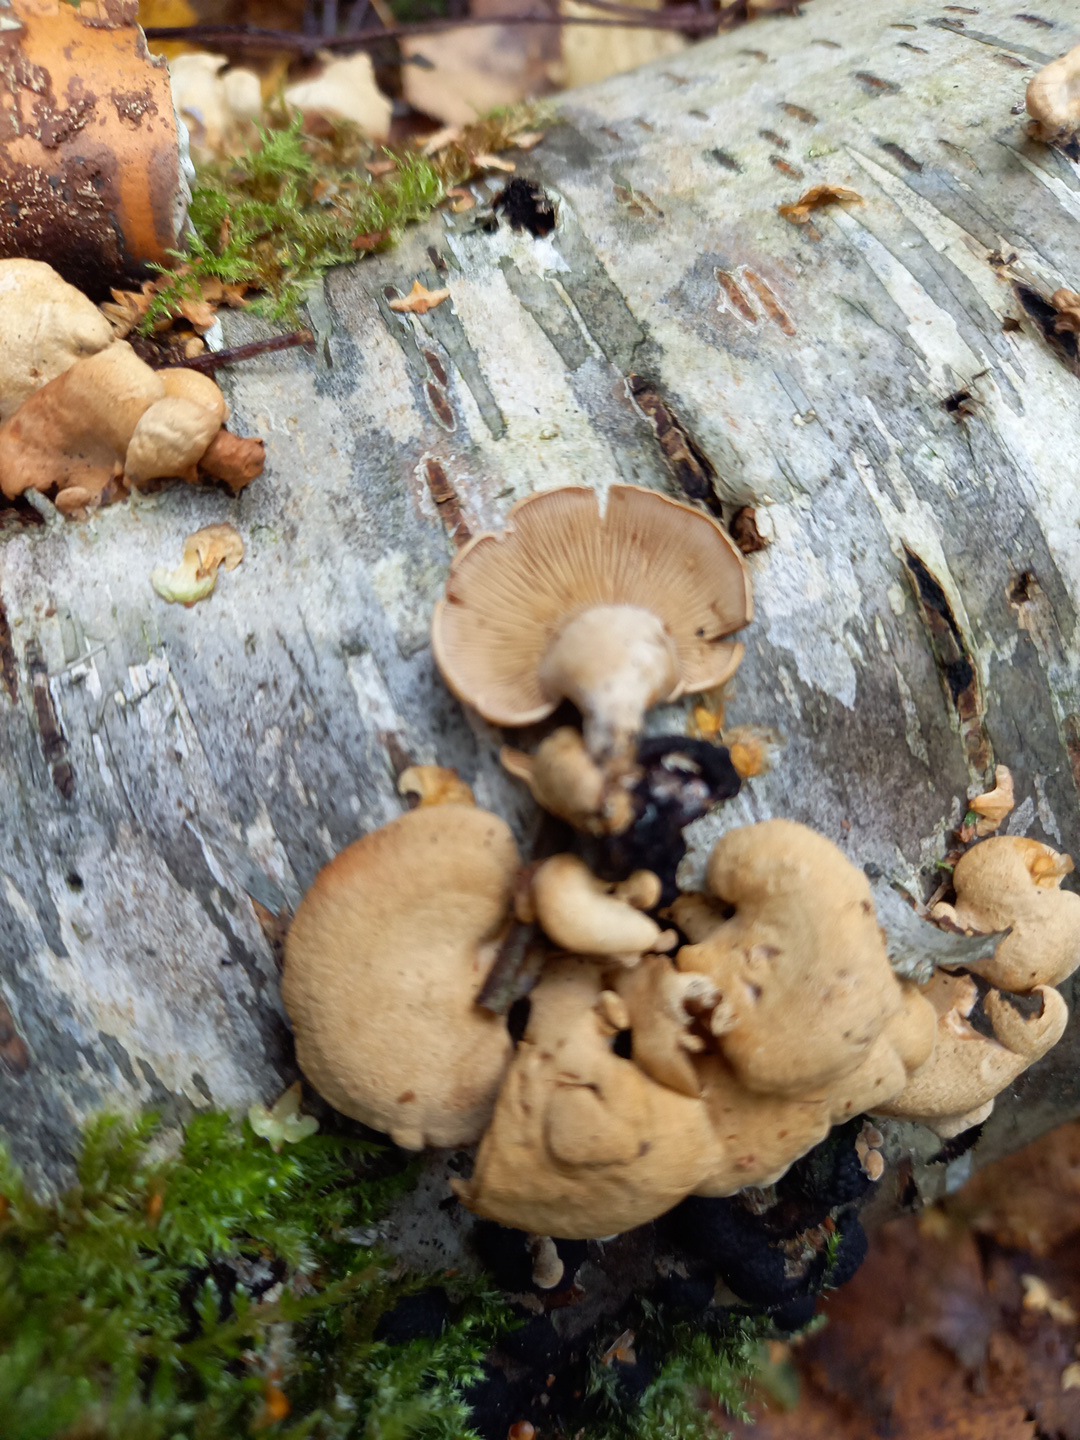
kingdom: Fungi
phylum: Basidiomycota
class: Agaricomycetes
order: Agaricales
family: Mycenaceae
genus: Panellus
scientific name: Panellus stipticus
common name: kliddet epaulethat
